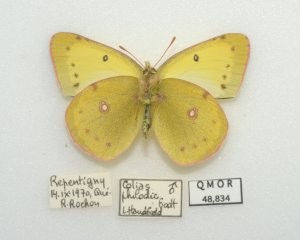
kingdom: Animalia
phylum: Arthropoda
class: Insecta
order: Lepidoptera
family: Pieridae
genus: Colias
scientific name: Colias philodice
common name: Clouded Sulphur
